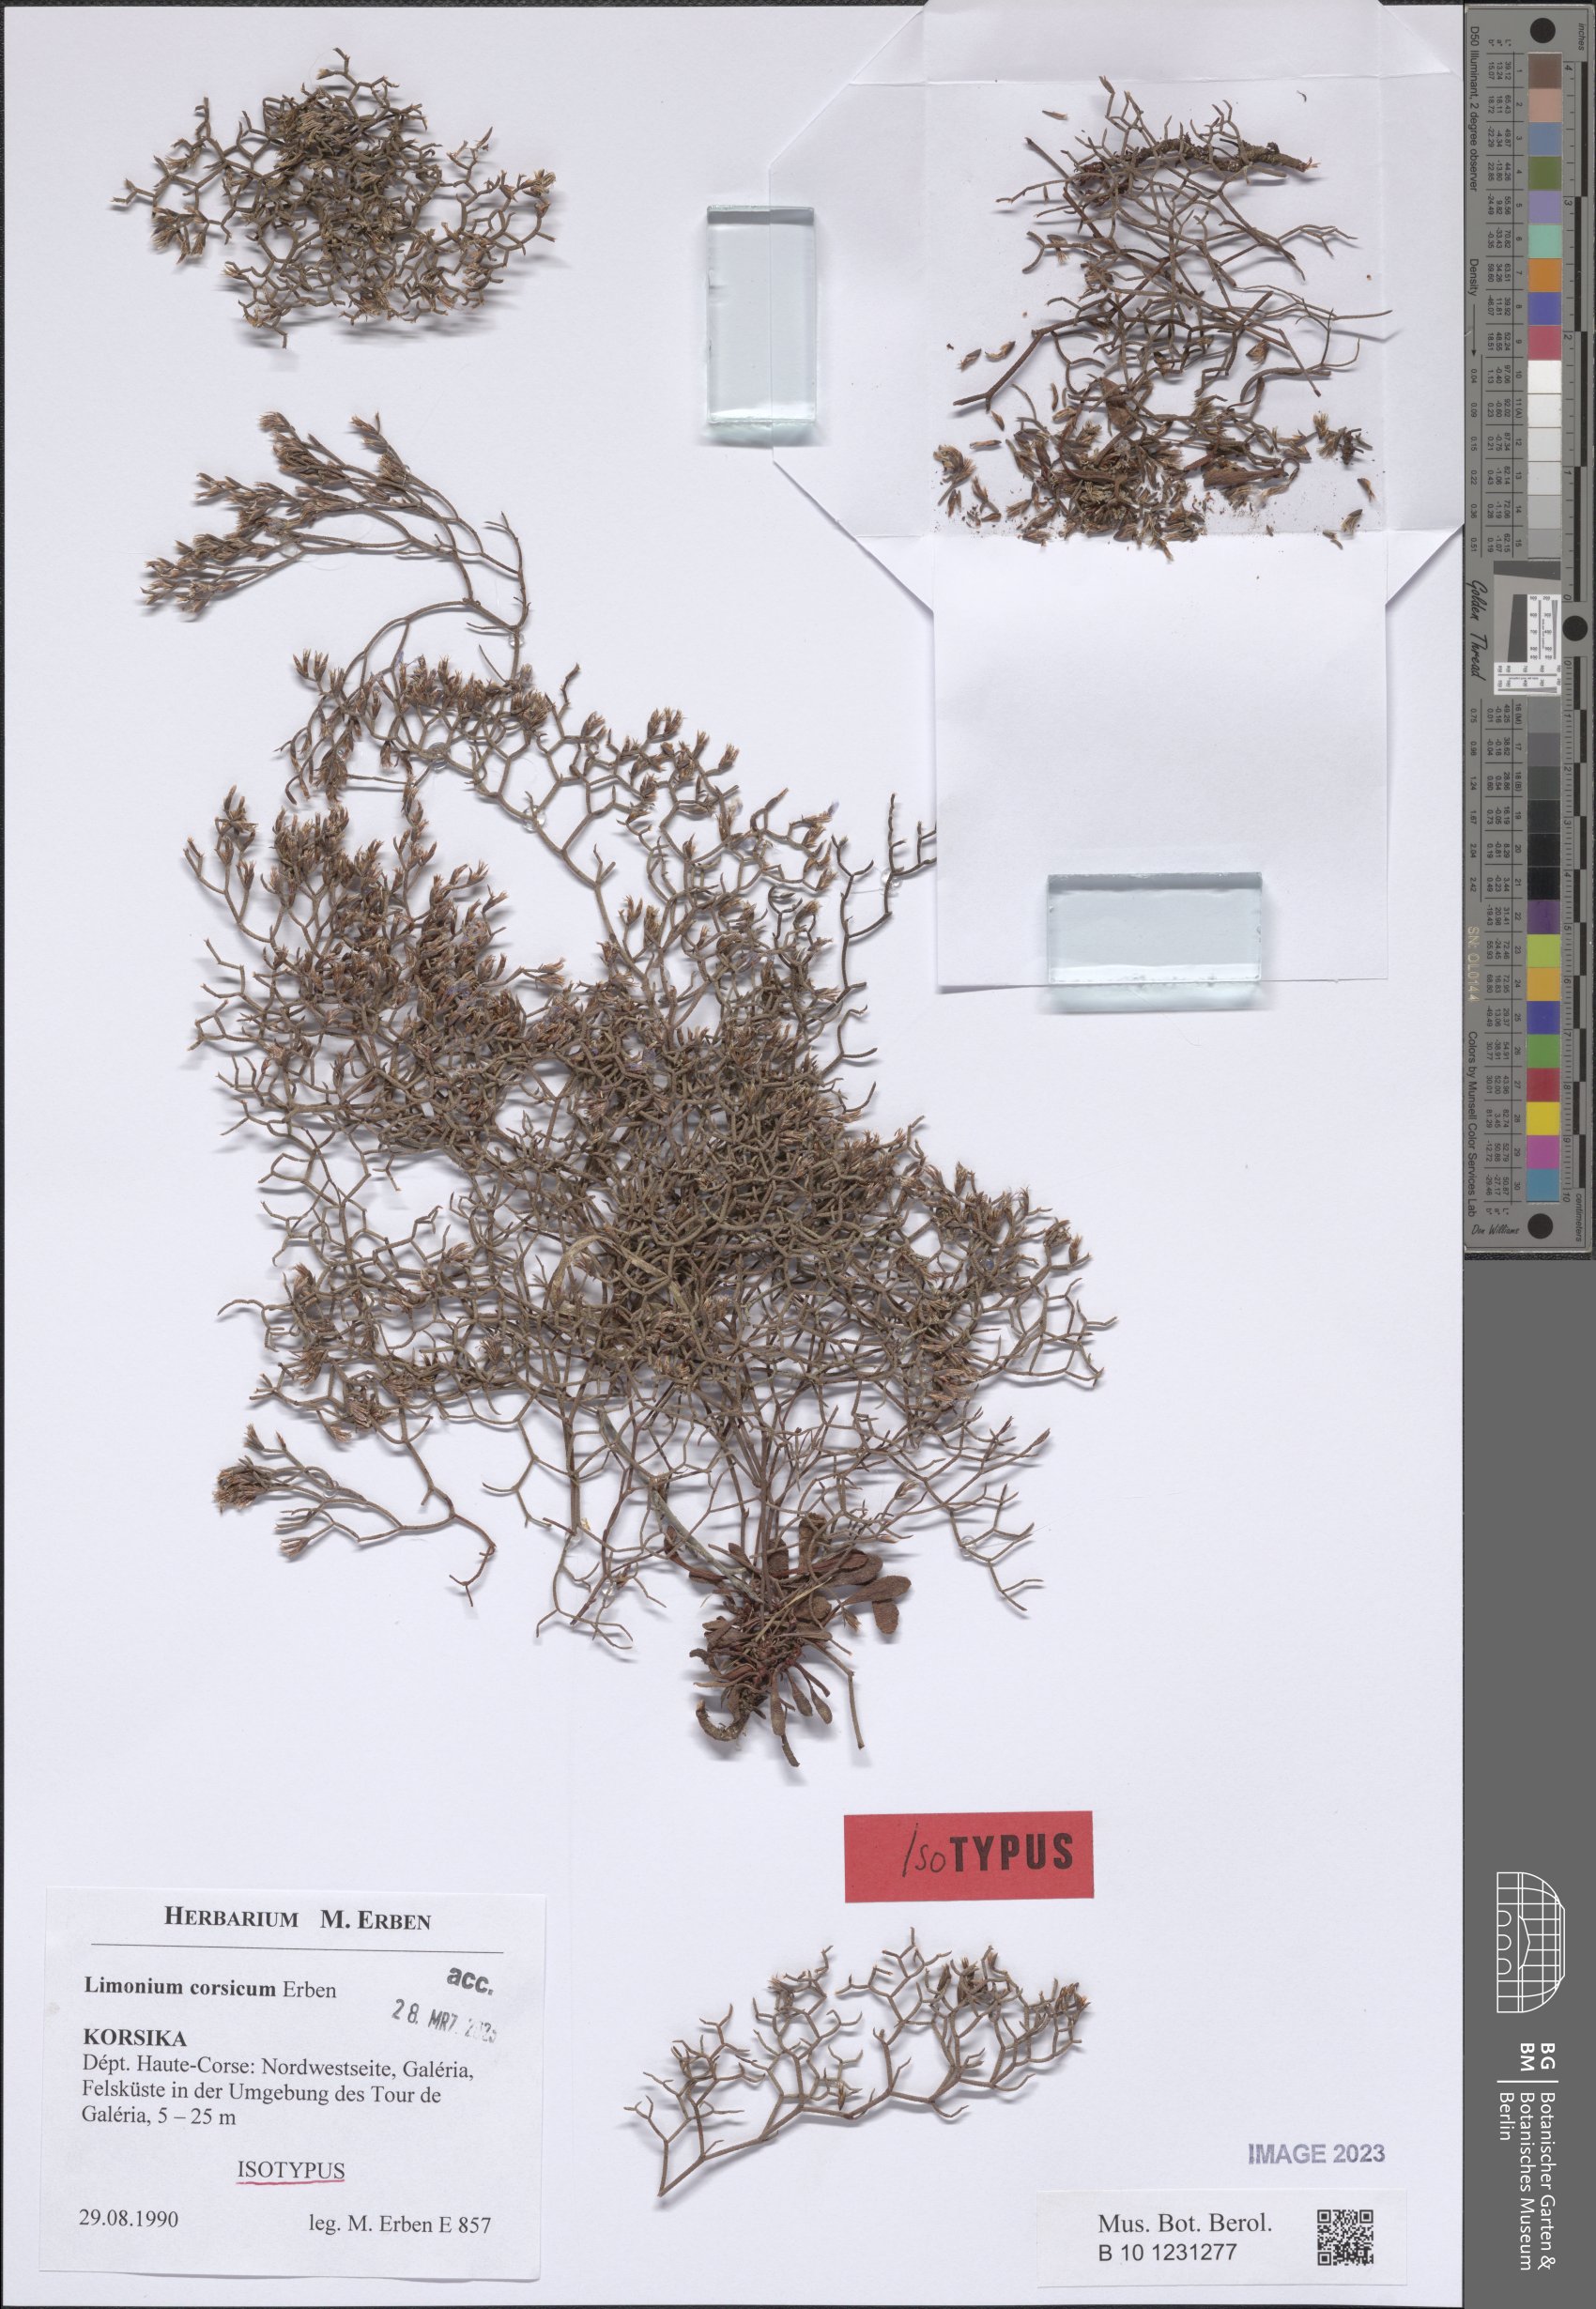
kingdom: Plantae
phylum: Tracheophyta
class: Magnoliopsida
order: Caryophyllales
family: Plumbaginaceae
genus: Limonium
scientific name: Limonium corsicum
